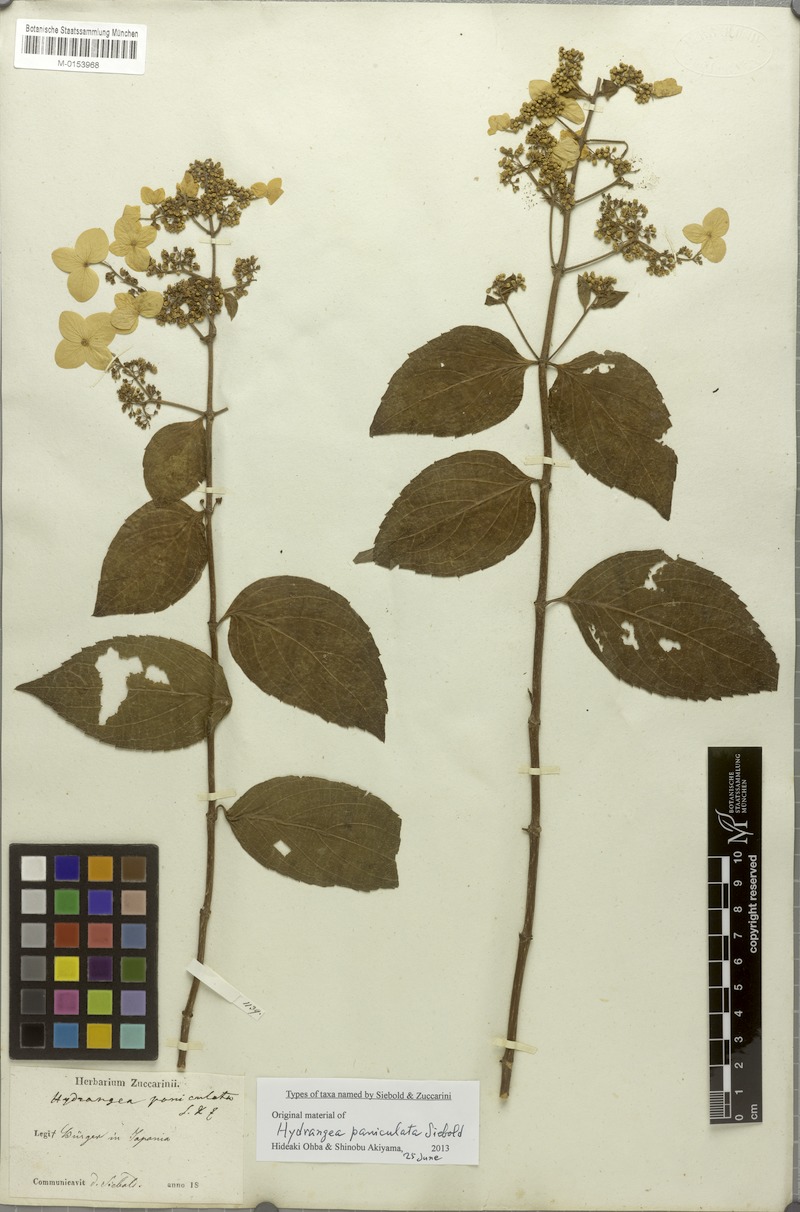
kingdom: Plantae
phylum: Tracheophyta
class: Magnoliopsida
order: Cornales
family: Hydrangeaceae
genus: Hydrangea
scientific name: Hydrangea paniculata
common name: Panicled hydrangea
